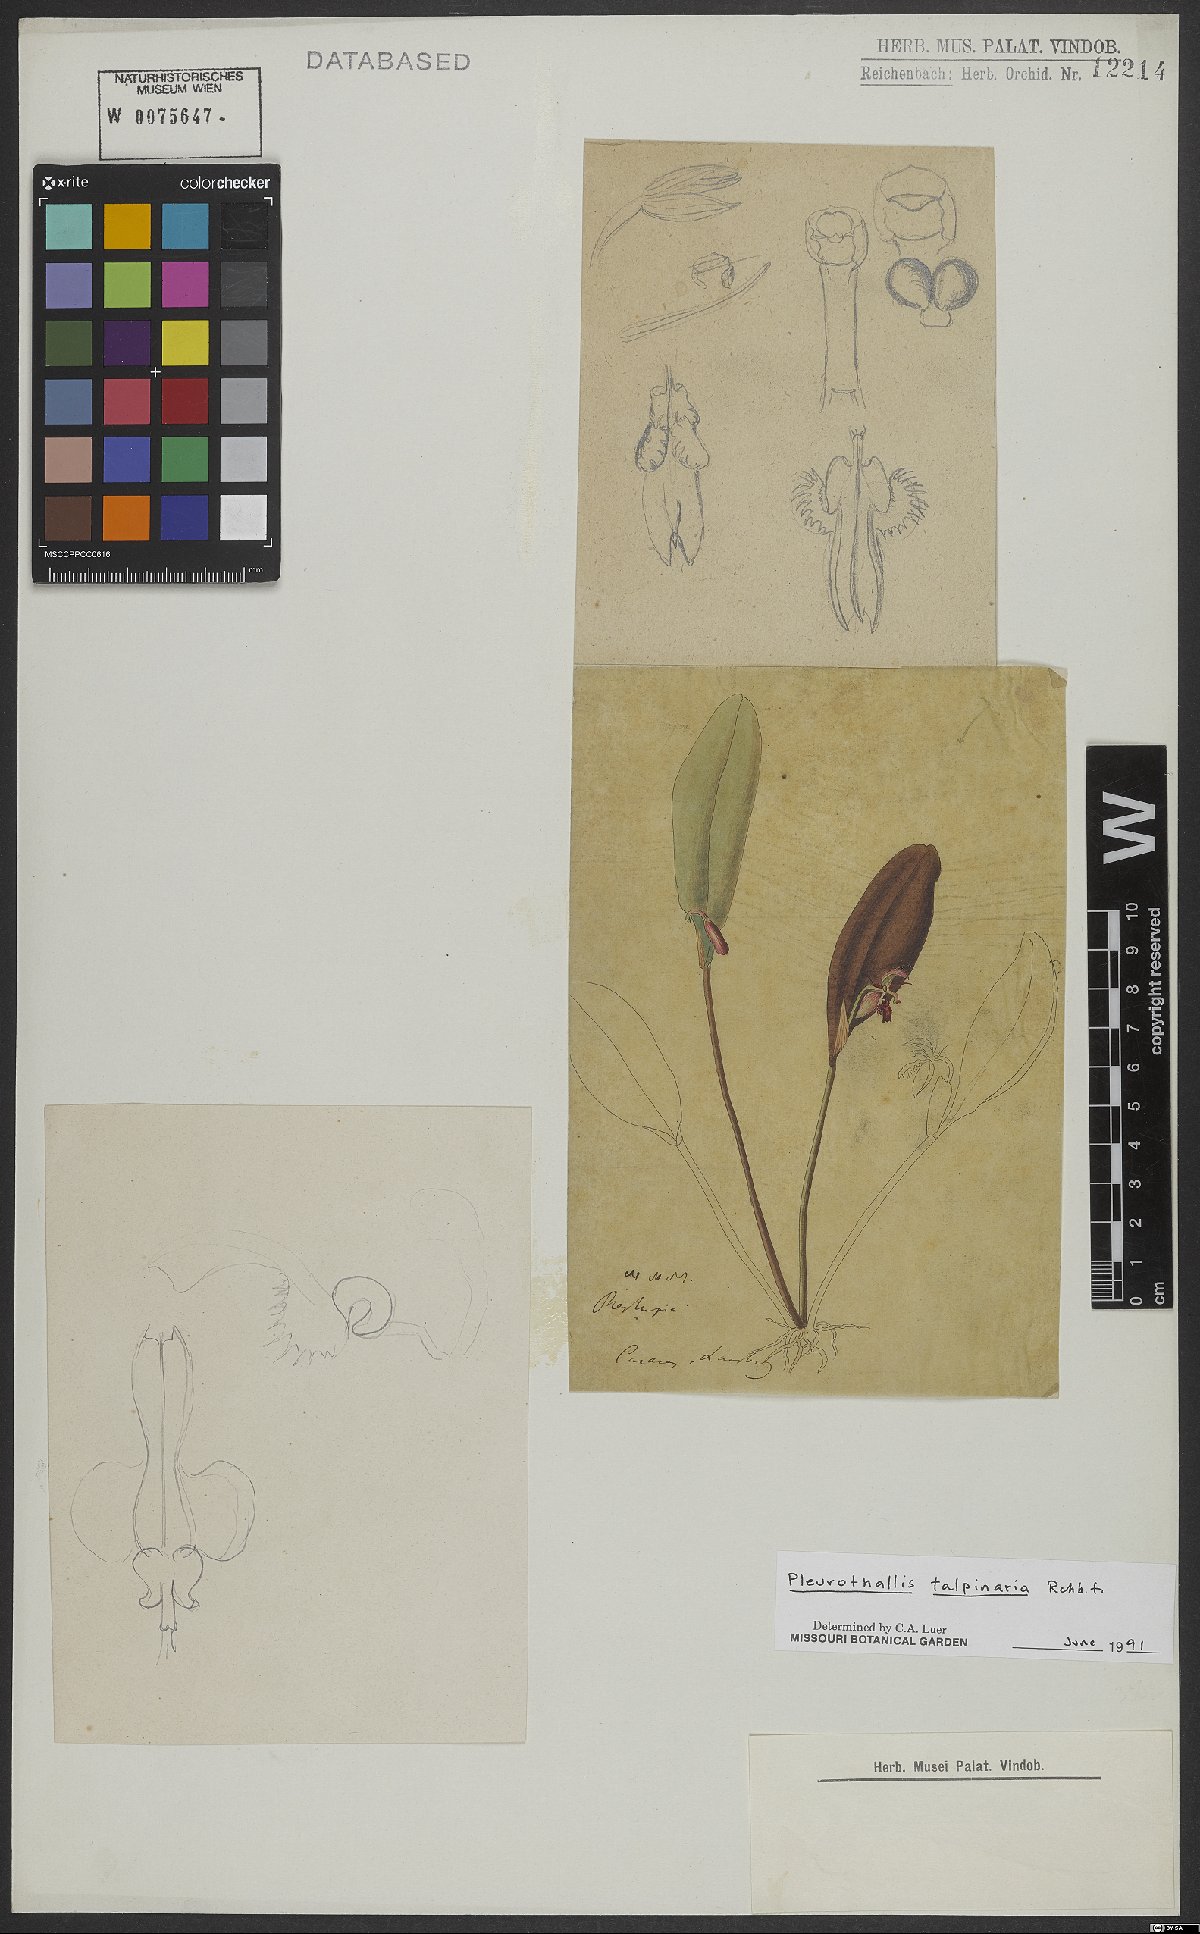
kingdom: Plantae
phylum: Tracheophyta
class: Liliopsida
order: Asparagales
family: Orchidaceae
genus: Pleurothallis
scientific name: Pleurothallis talpinaria
